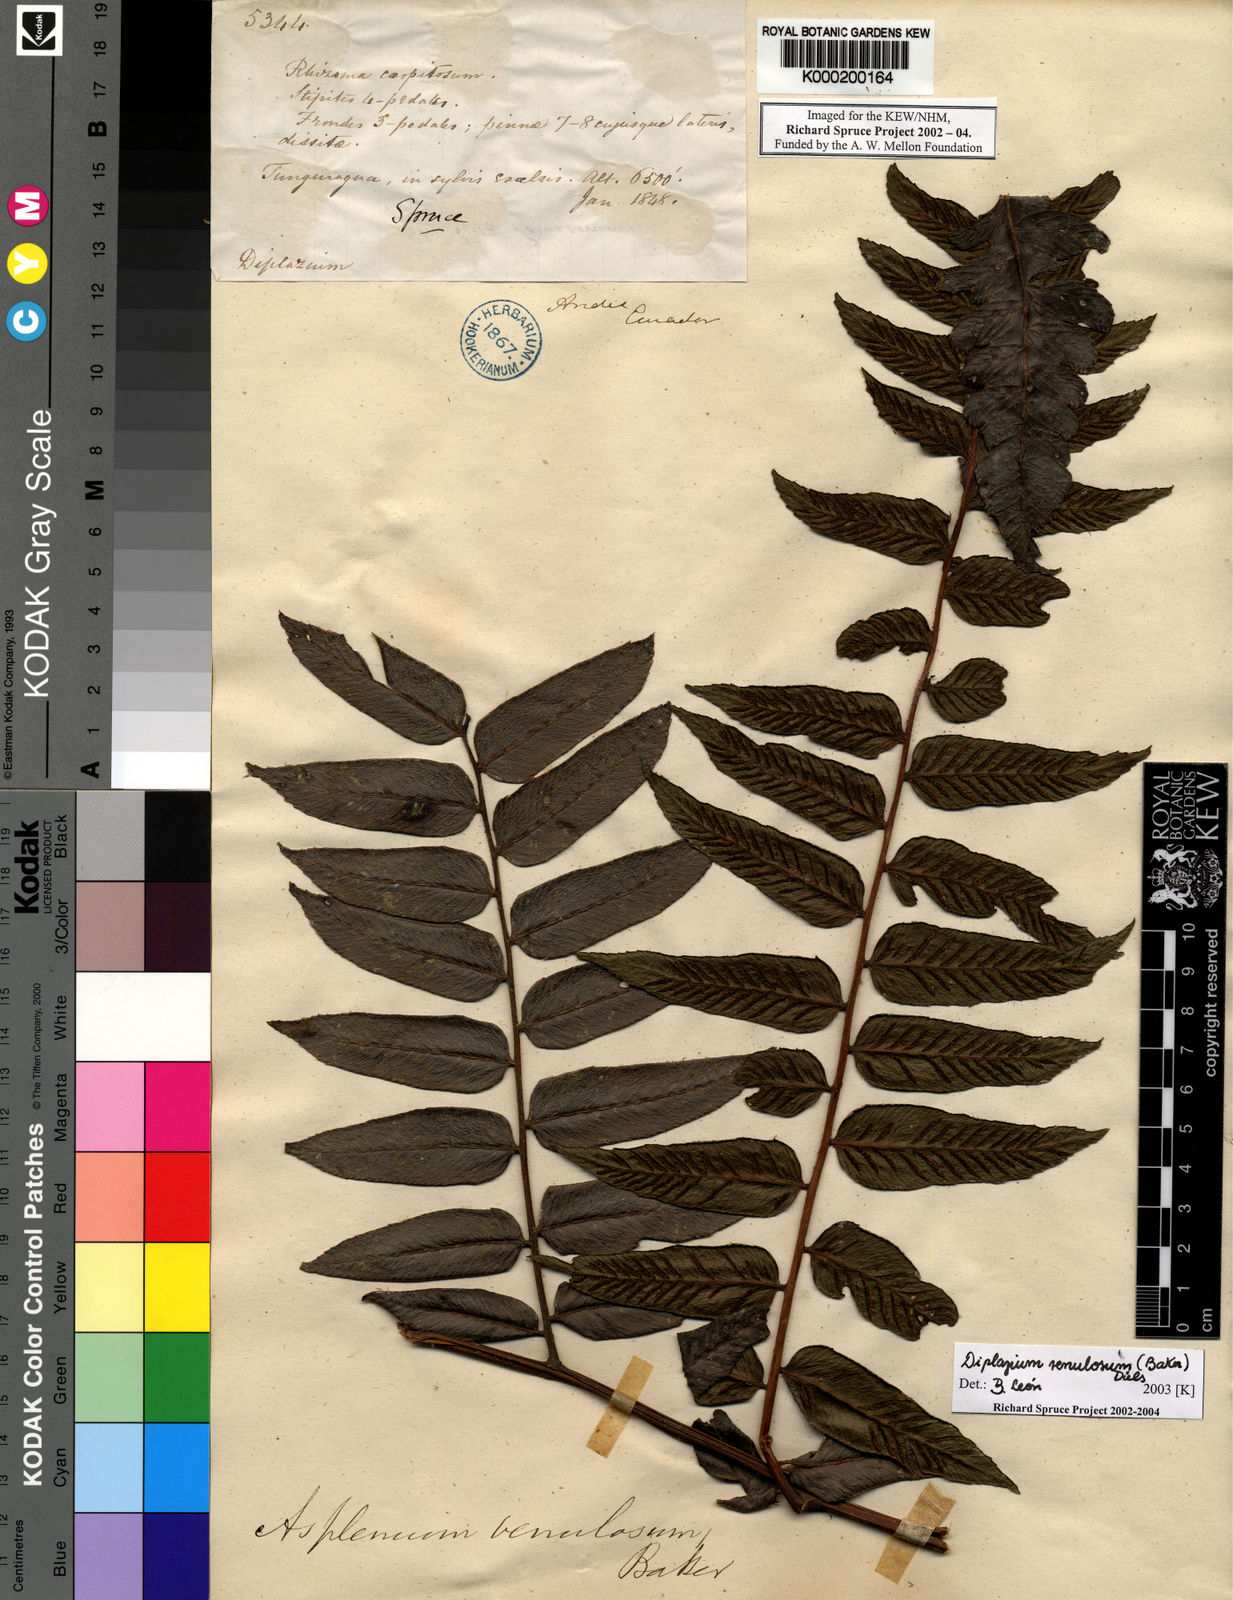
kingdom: Plantae
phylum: Tracheophyta
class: Polypodiopsida
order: Polypodiales
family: Athyriaceae
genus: Diplazium
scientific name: Diplazium
